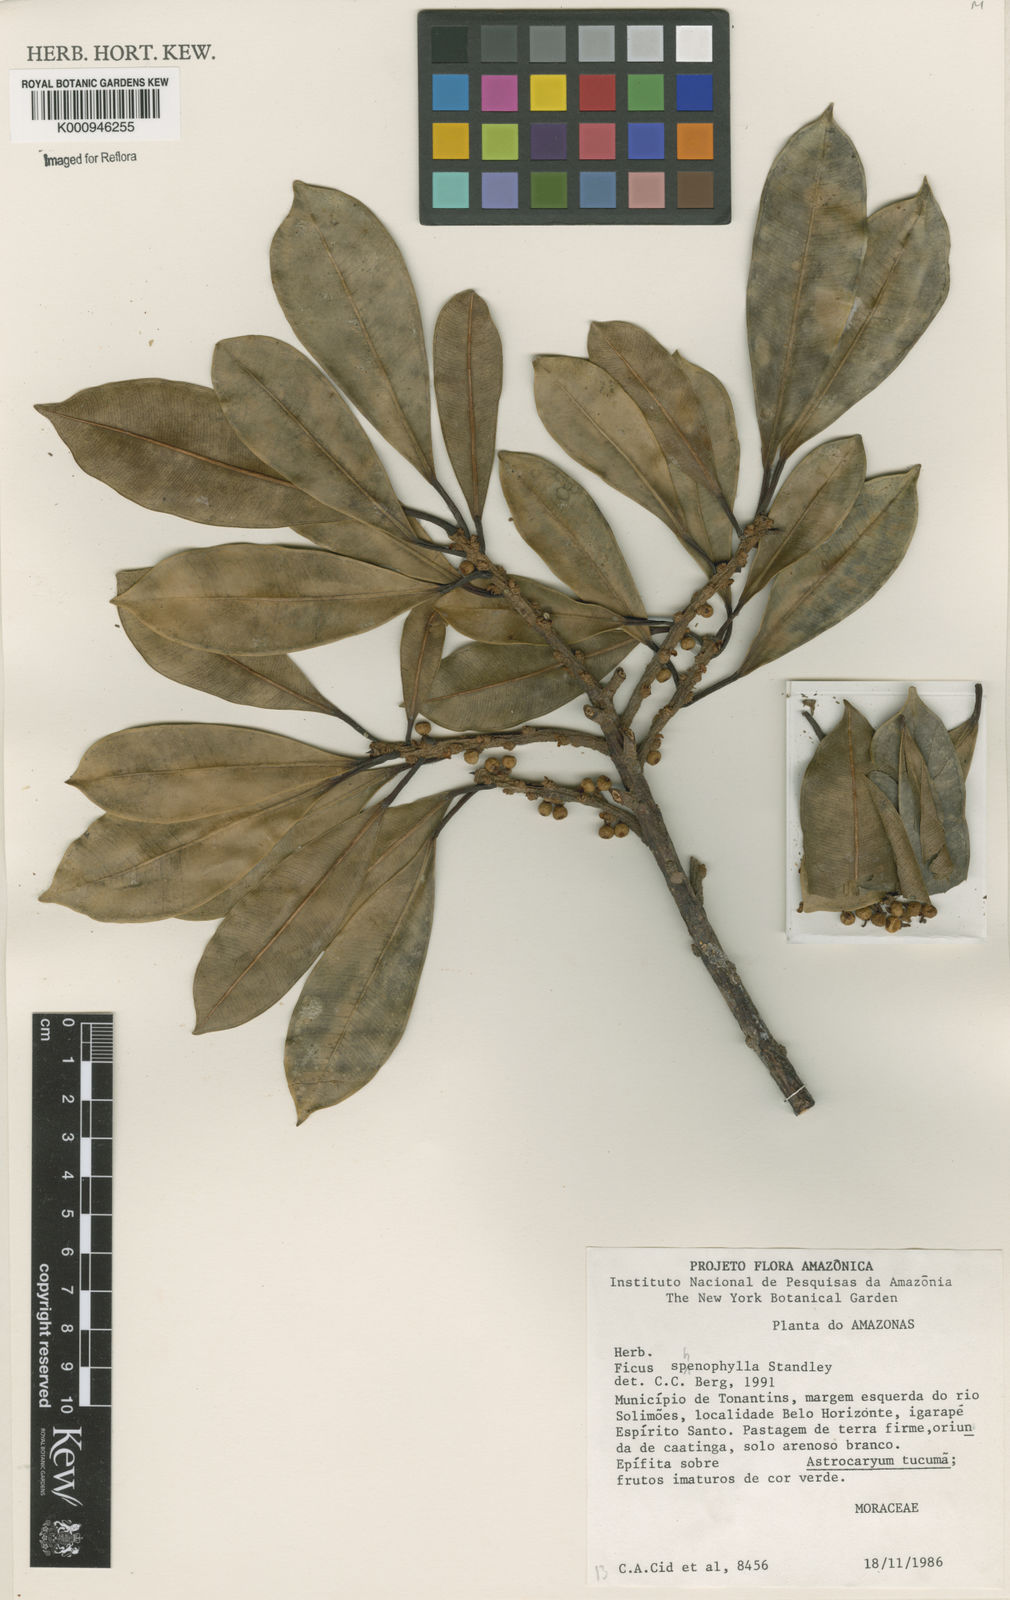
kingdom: Plantae
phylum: Tracheophyta
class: Magnoliopsida
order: Rosales
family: Moraceae
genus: Ficus
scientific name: Ficus sphenophylla
